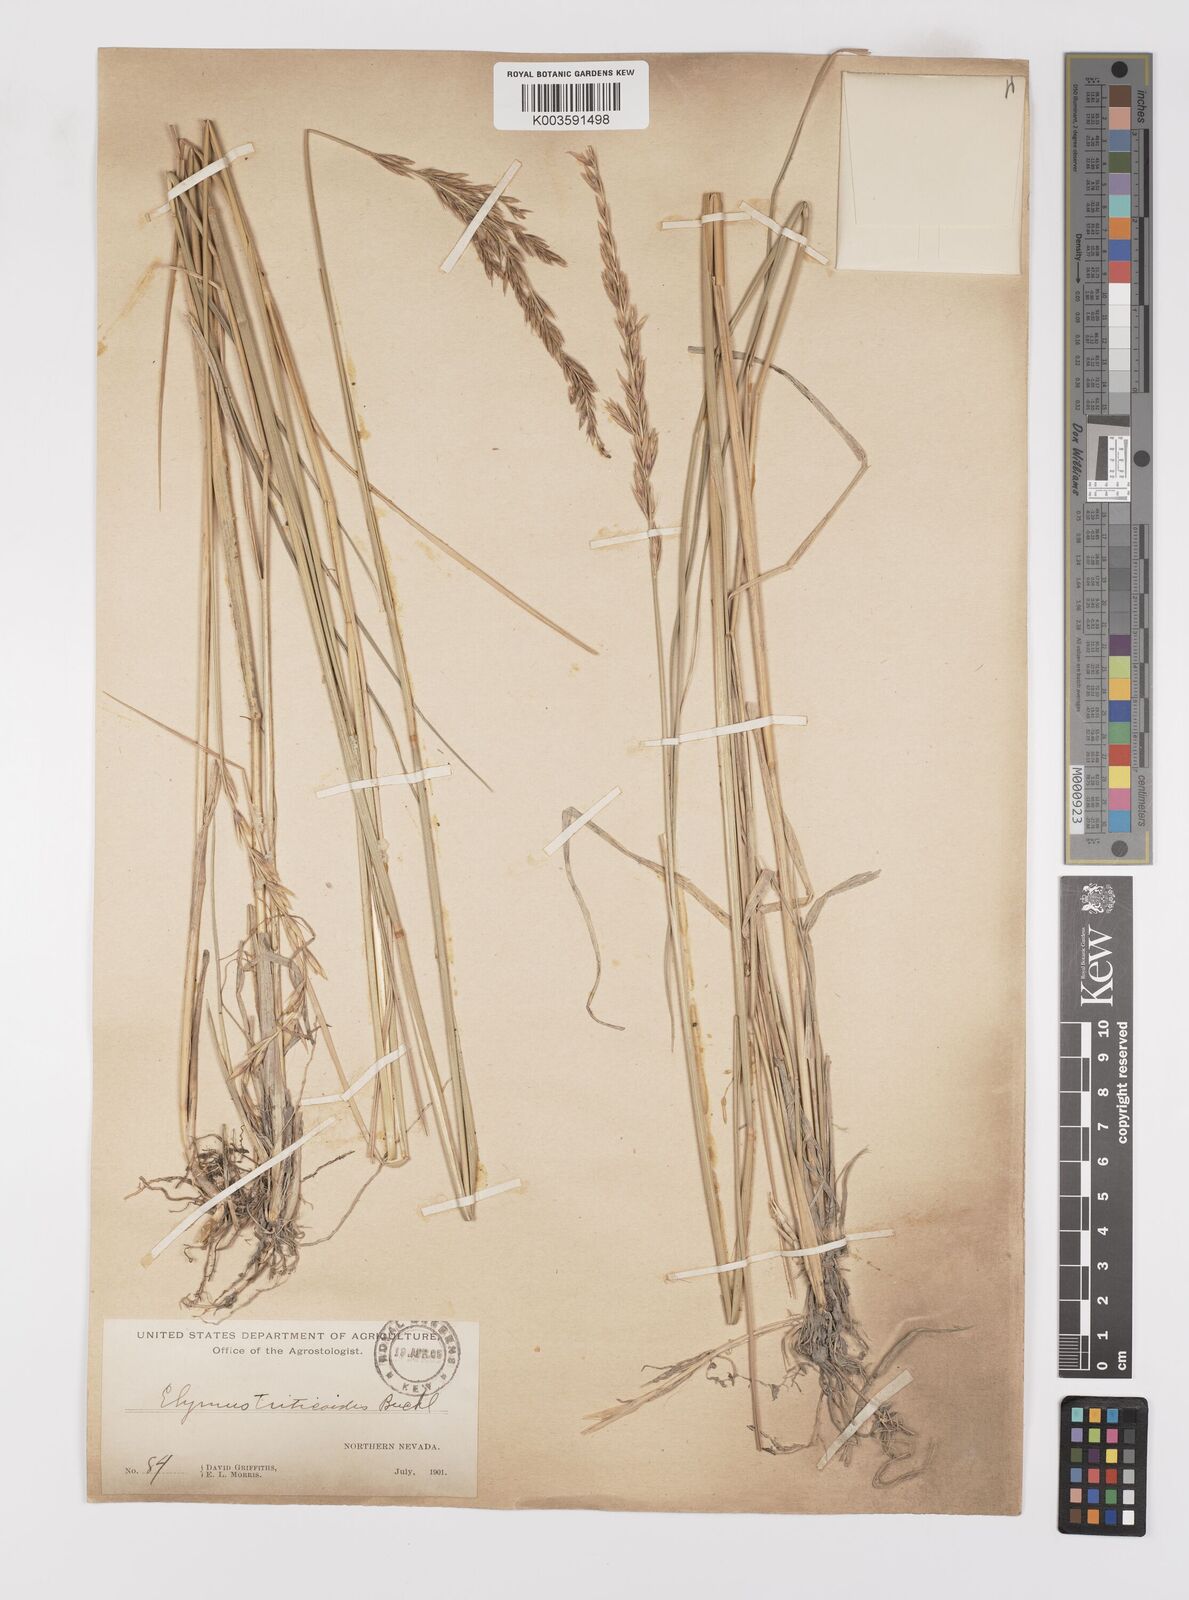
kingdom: Plantae
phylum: Tracheophyta
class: Liliopsida
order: Poales
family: Poaceae
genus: Leymus
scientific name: Leymus triticoides
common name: Beardless wild rye
